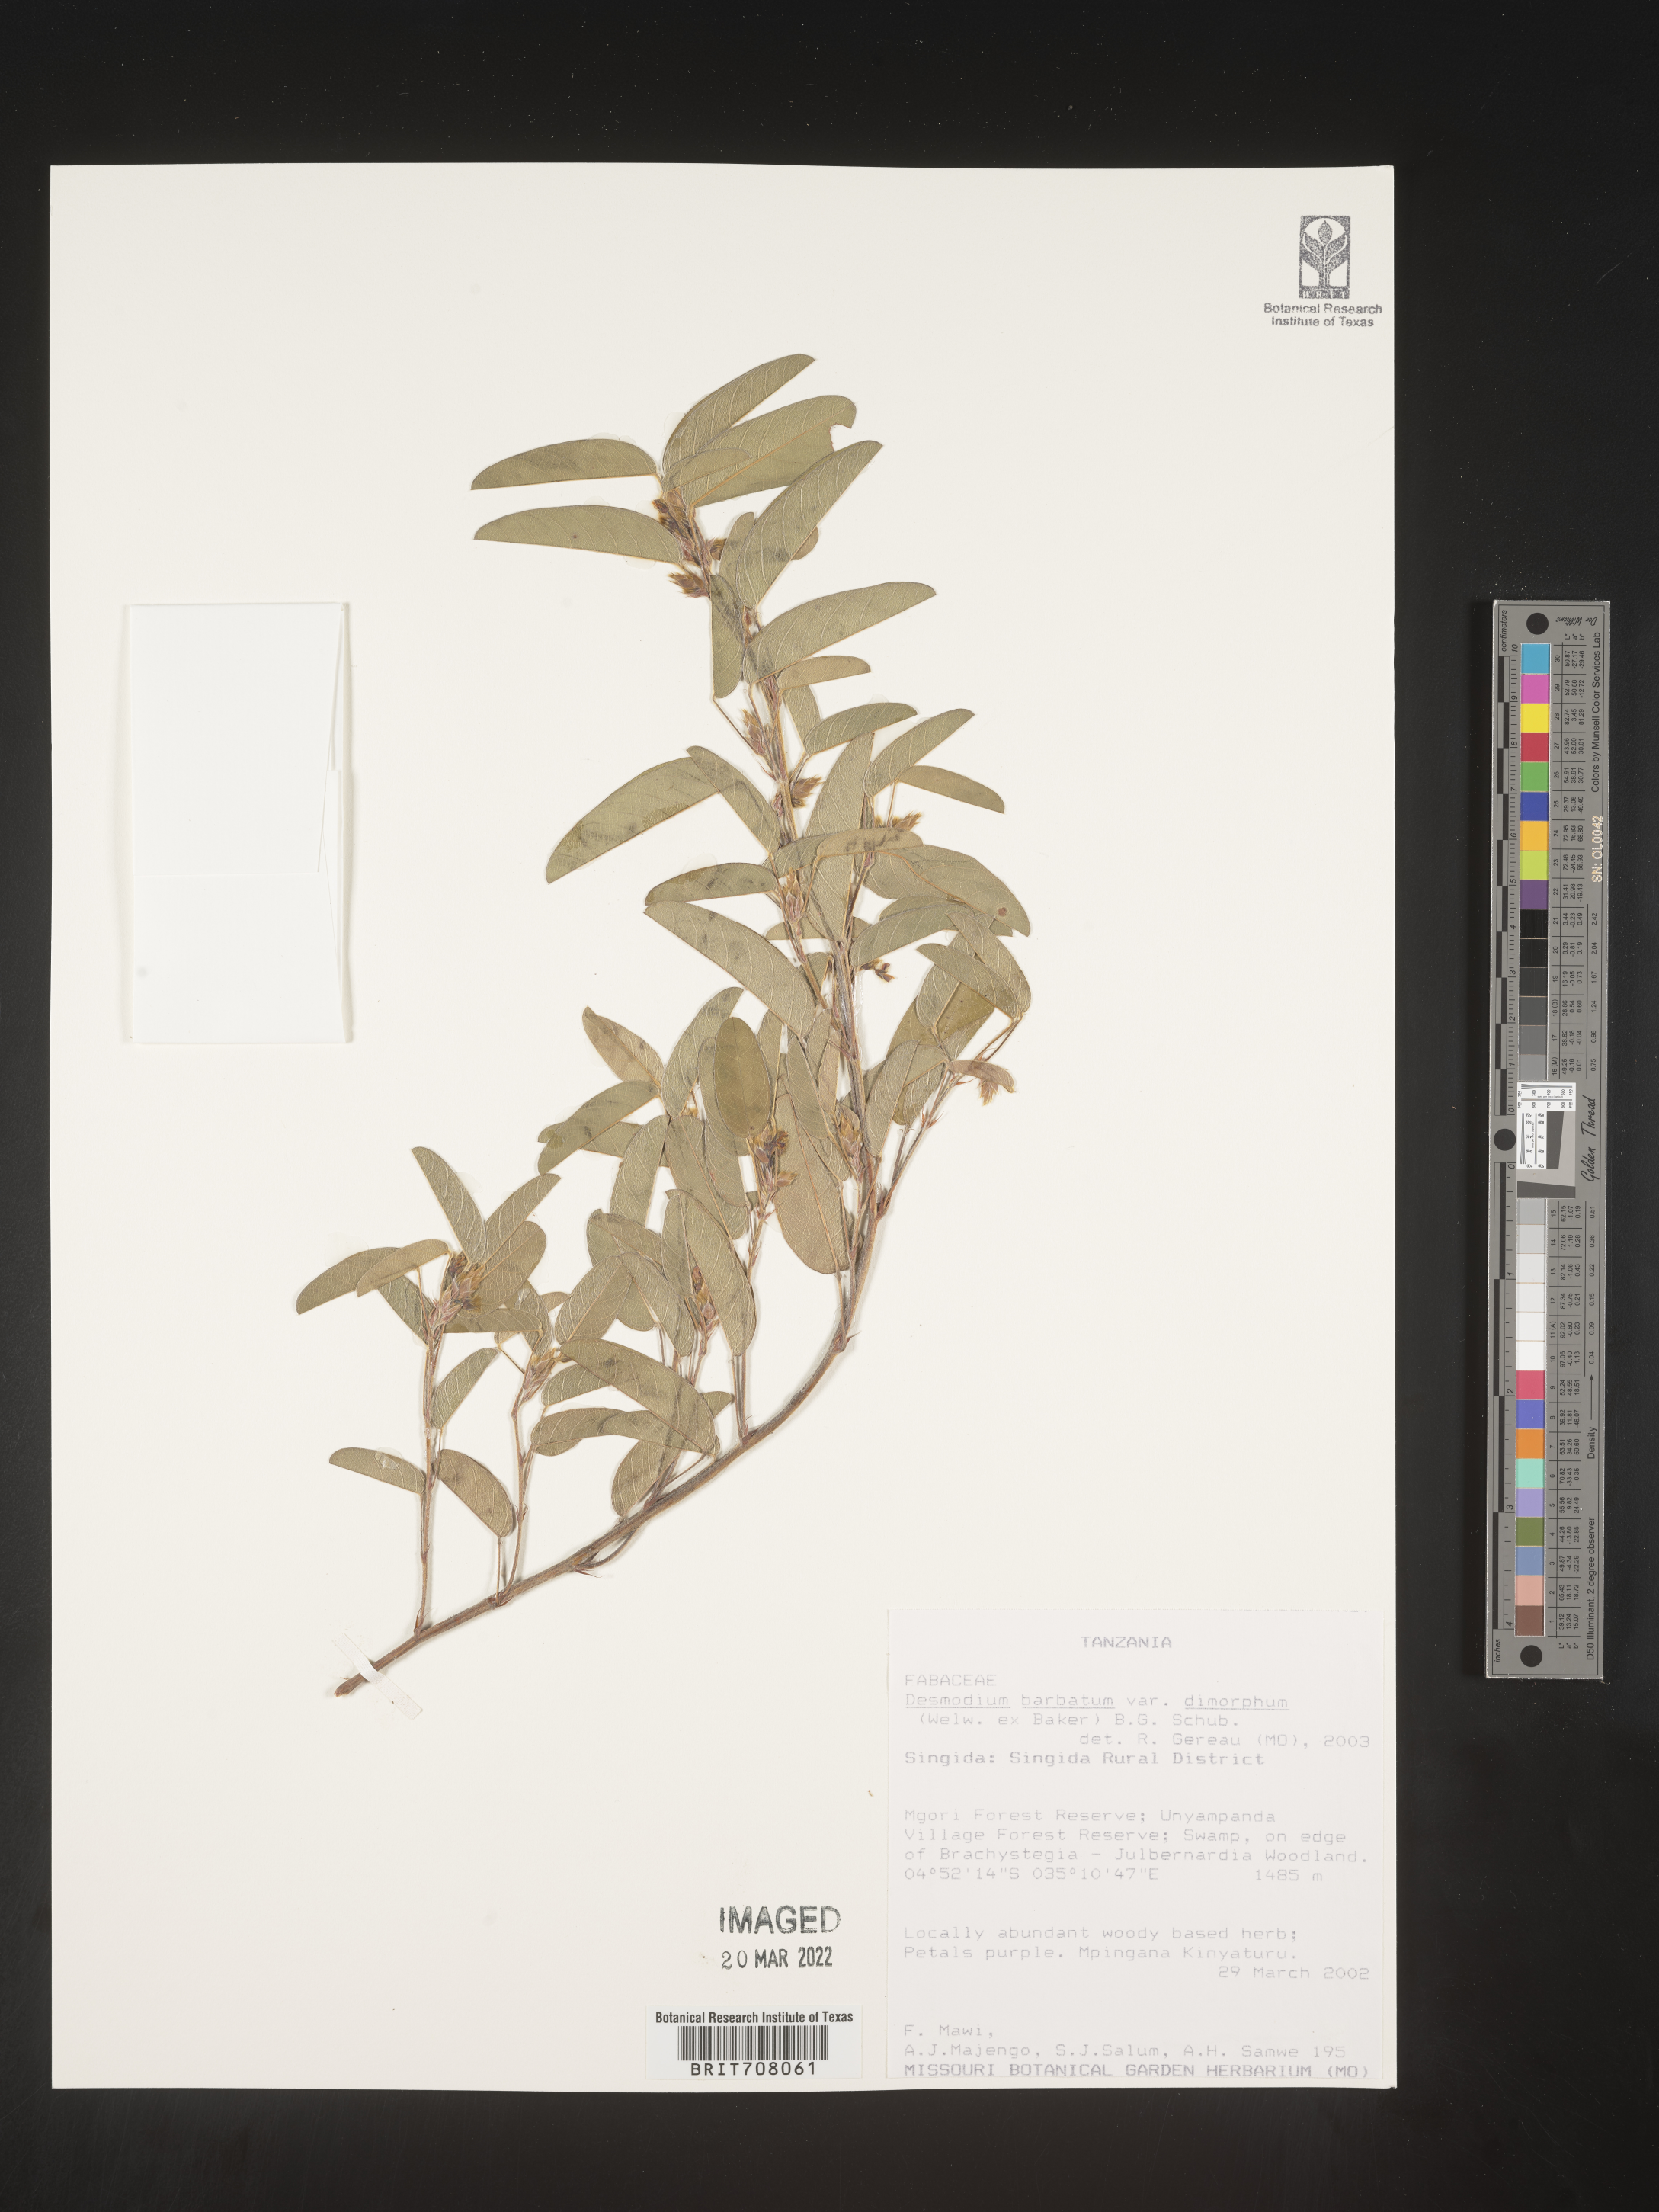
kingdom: Plantae
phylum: Tracheophyta
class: Magnoliopsida
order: Fabales
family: Fabaceae
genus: Desmodium
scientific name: Desmodium
